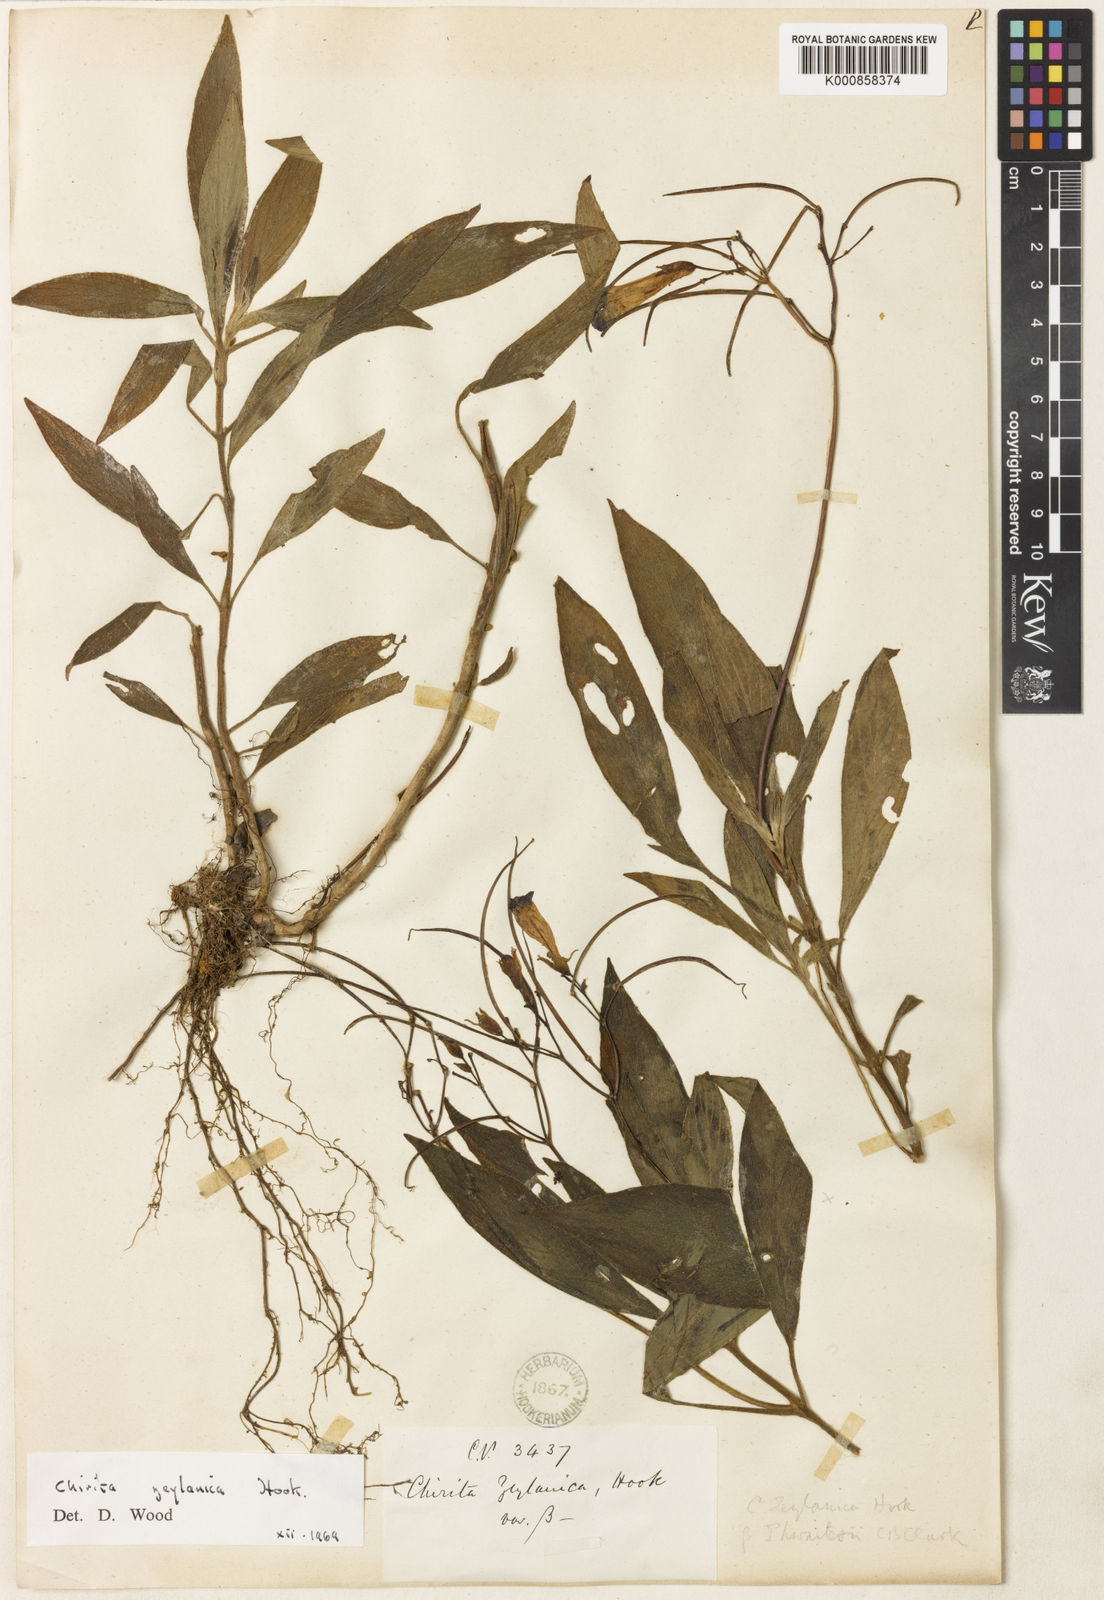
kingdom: Plantae
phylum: Tracheophyta
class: Magnoliopsida
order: Lamiales
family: Gesneriaceae
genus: Henckelia
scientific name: Henckelia angusta
